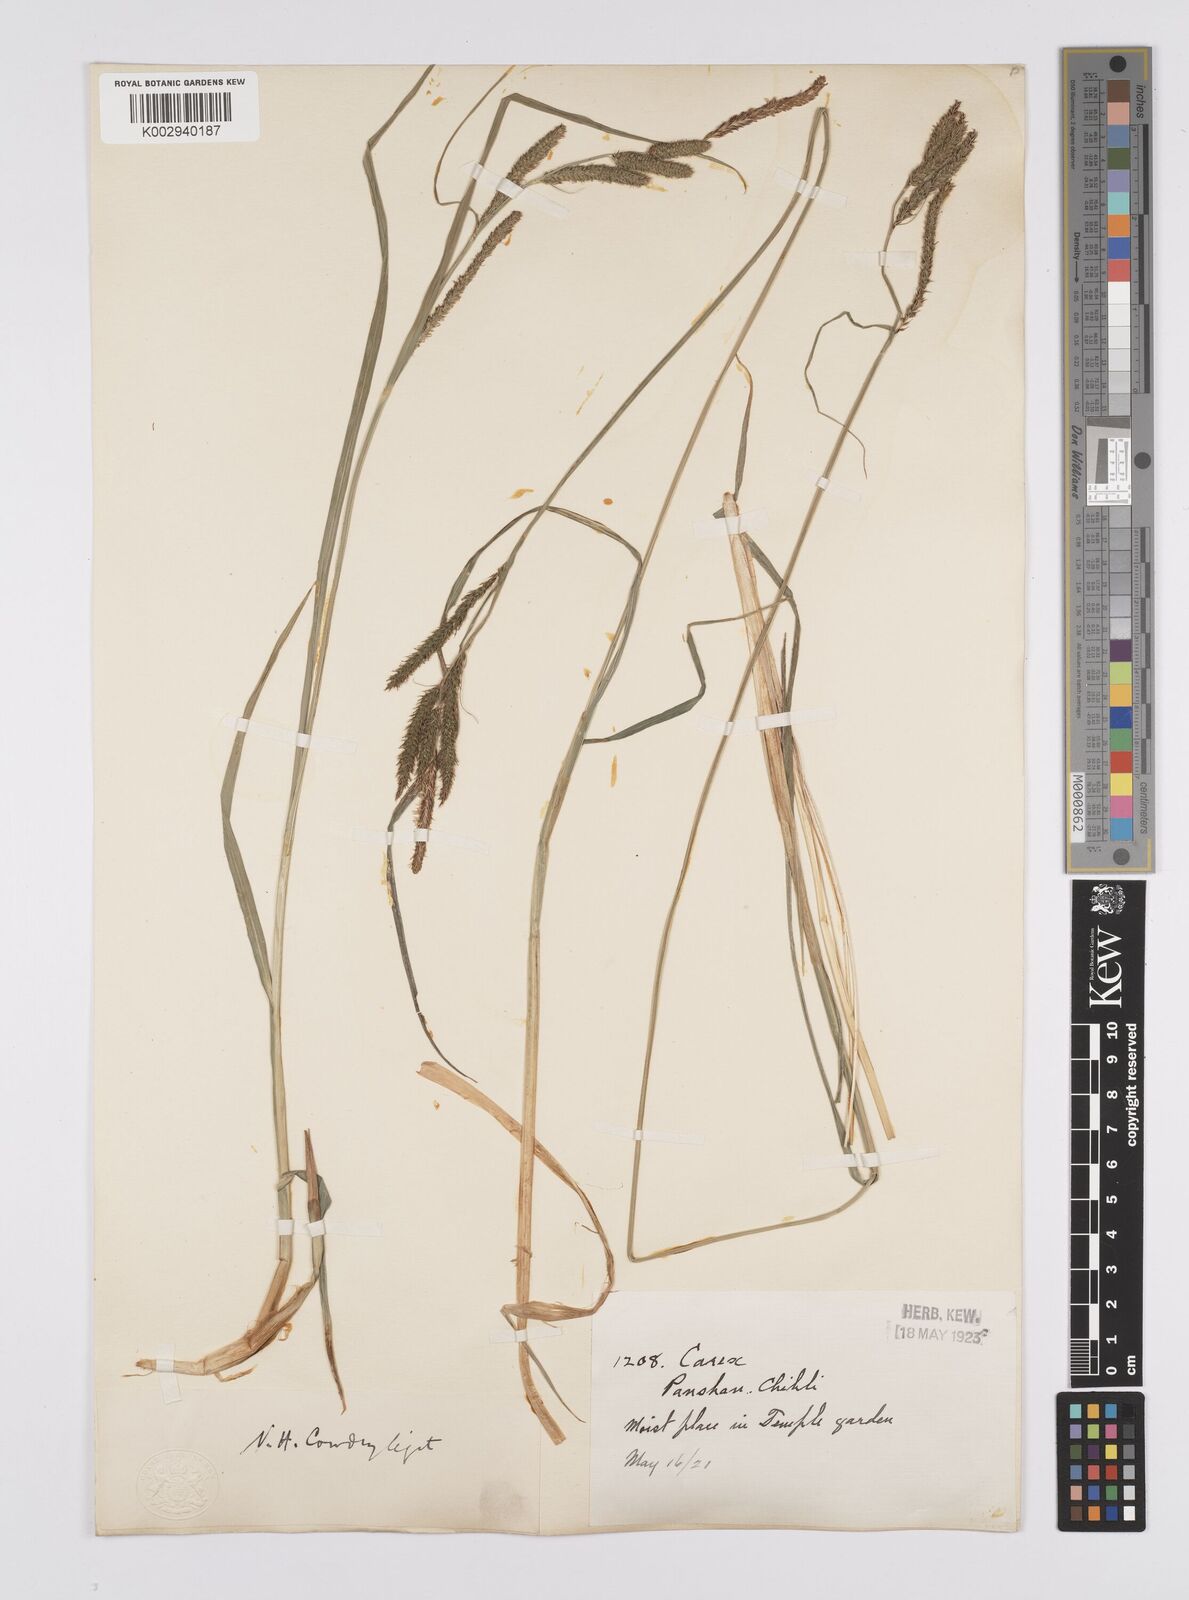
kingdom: Plantae
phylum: Tracheophyta
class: Liliopsida
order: Poales
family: Cyperaceae
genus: Carex
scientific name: Carex forficula
